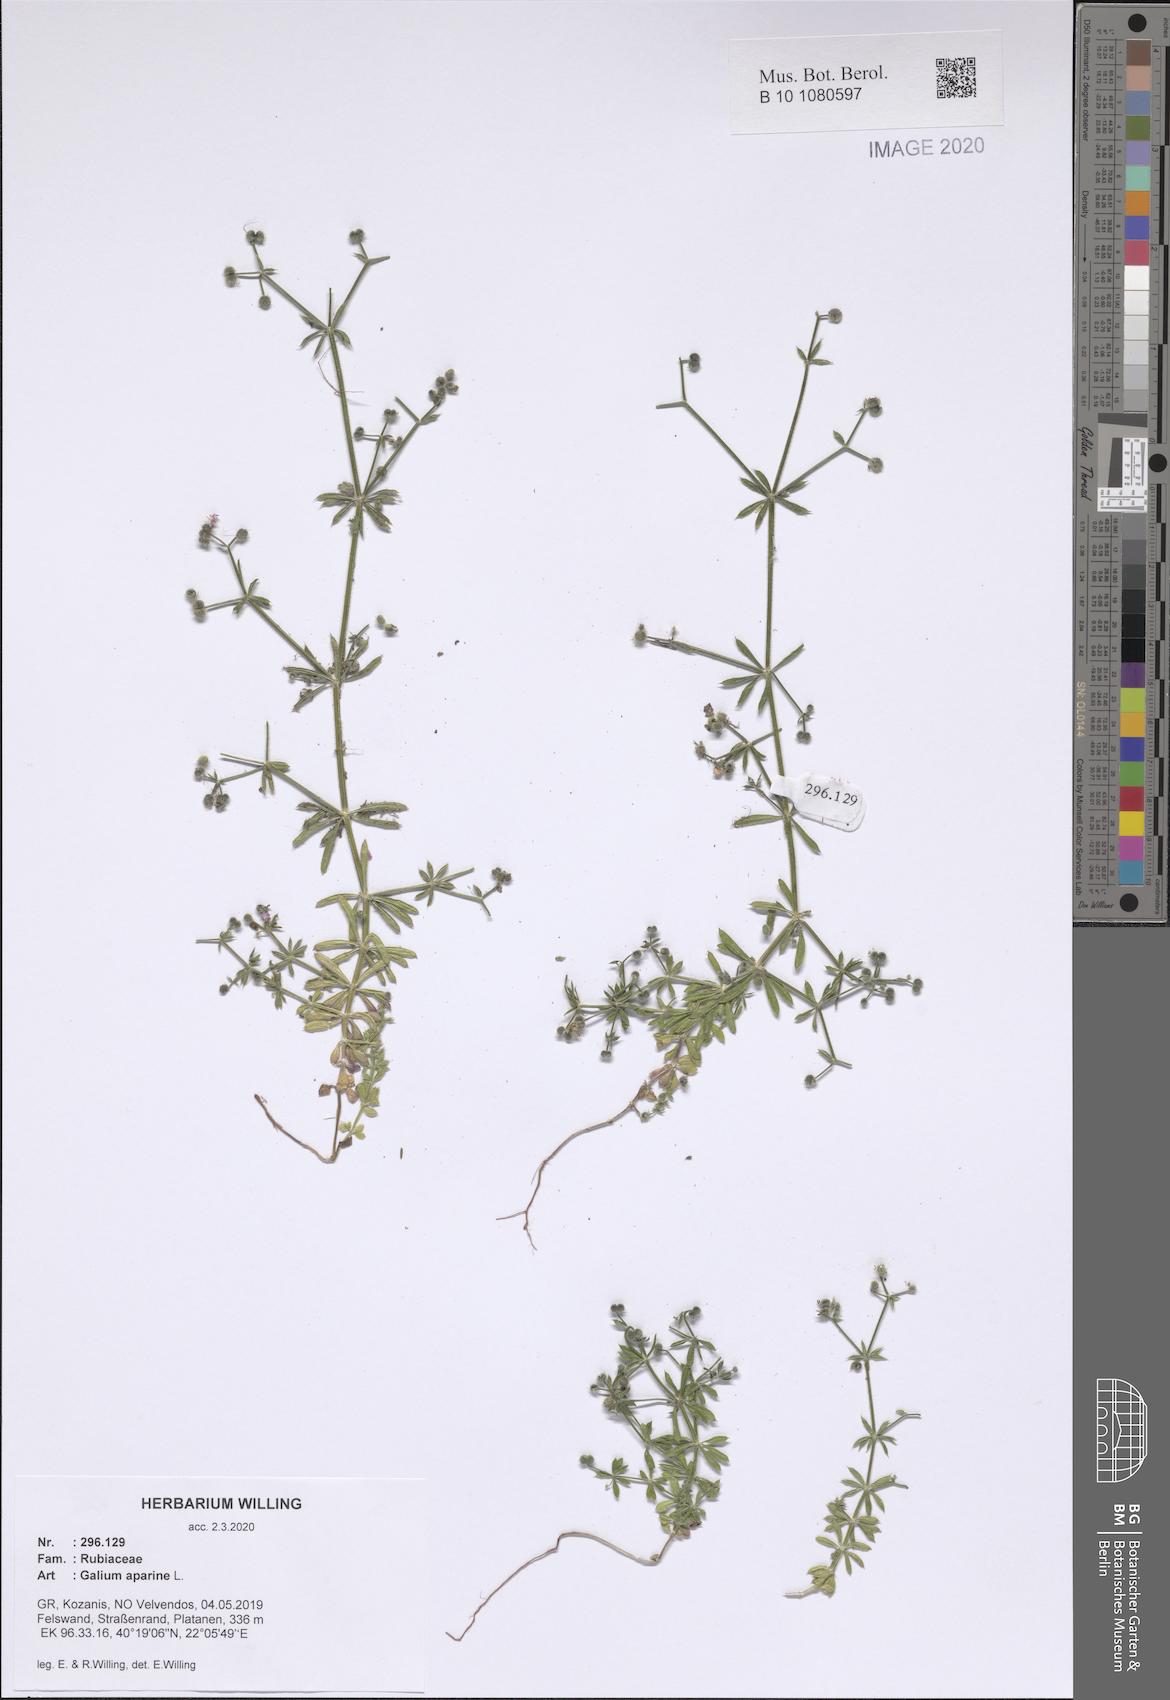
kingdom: Plantae
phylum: Tracheophyta
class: Magnoliopsida
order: Gentianales
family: Rubiaceae
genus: Galium
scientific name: Galium aparine
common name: Cleavers
